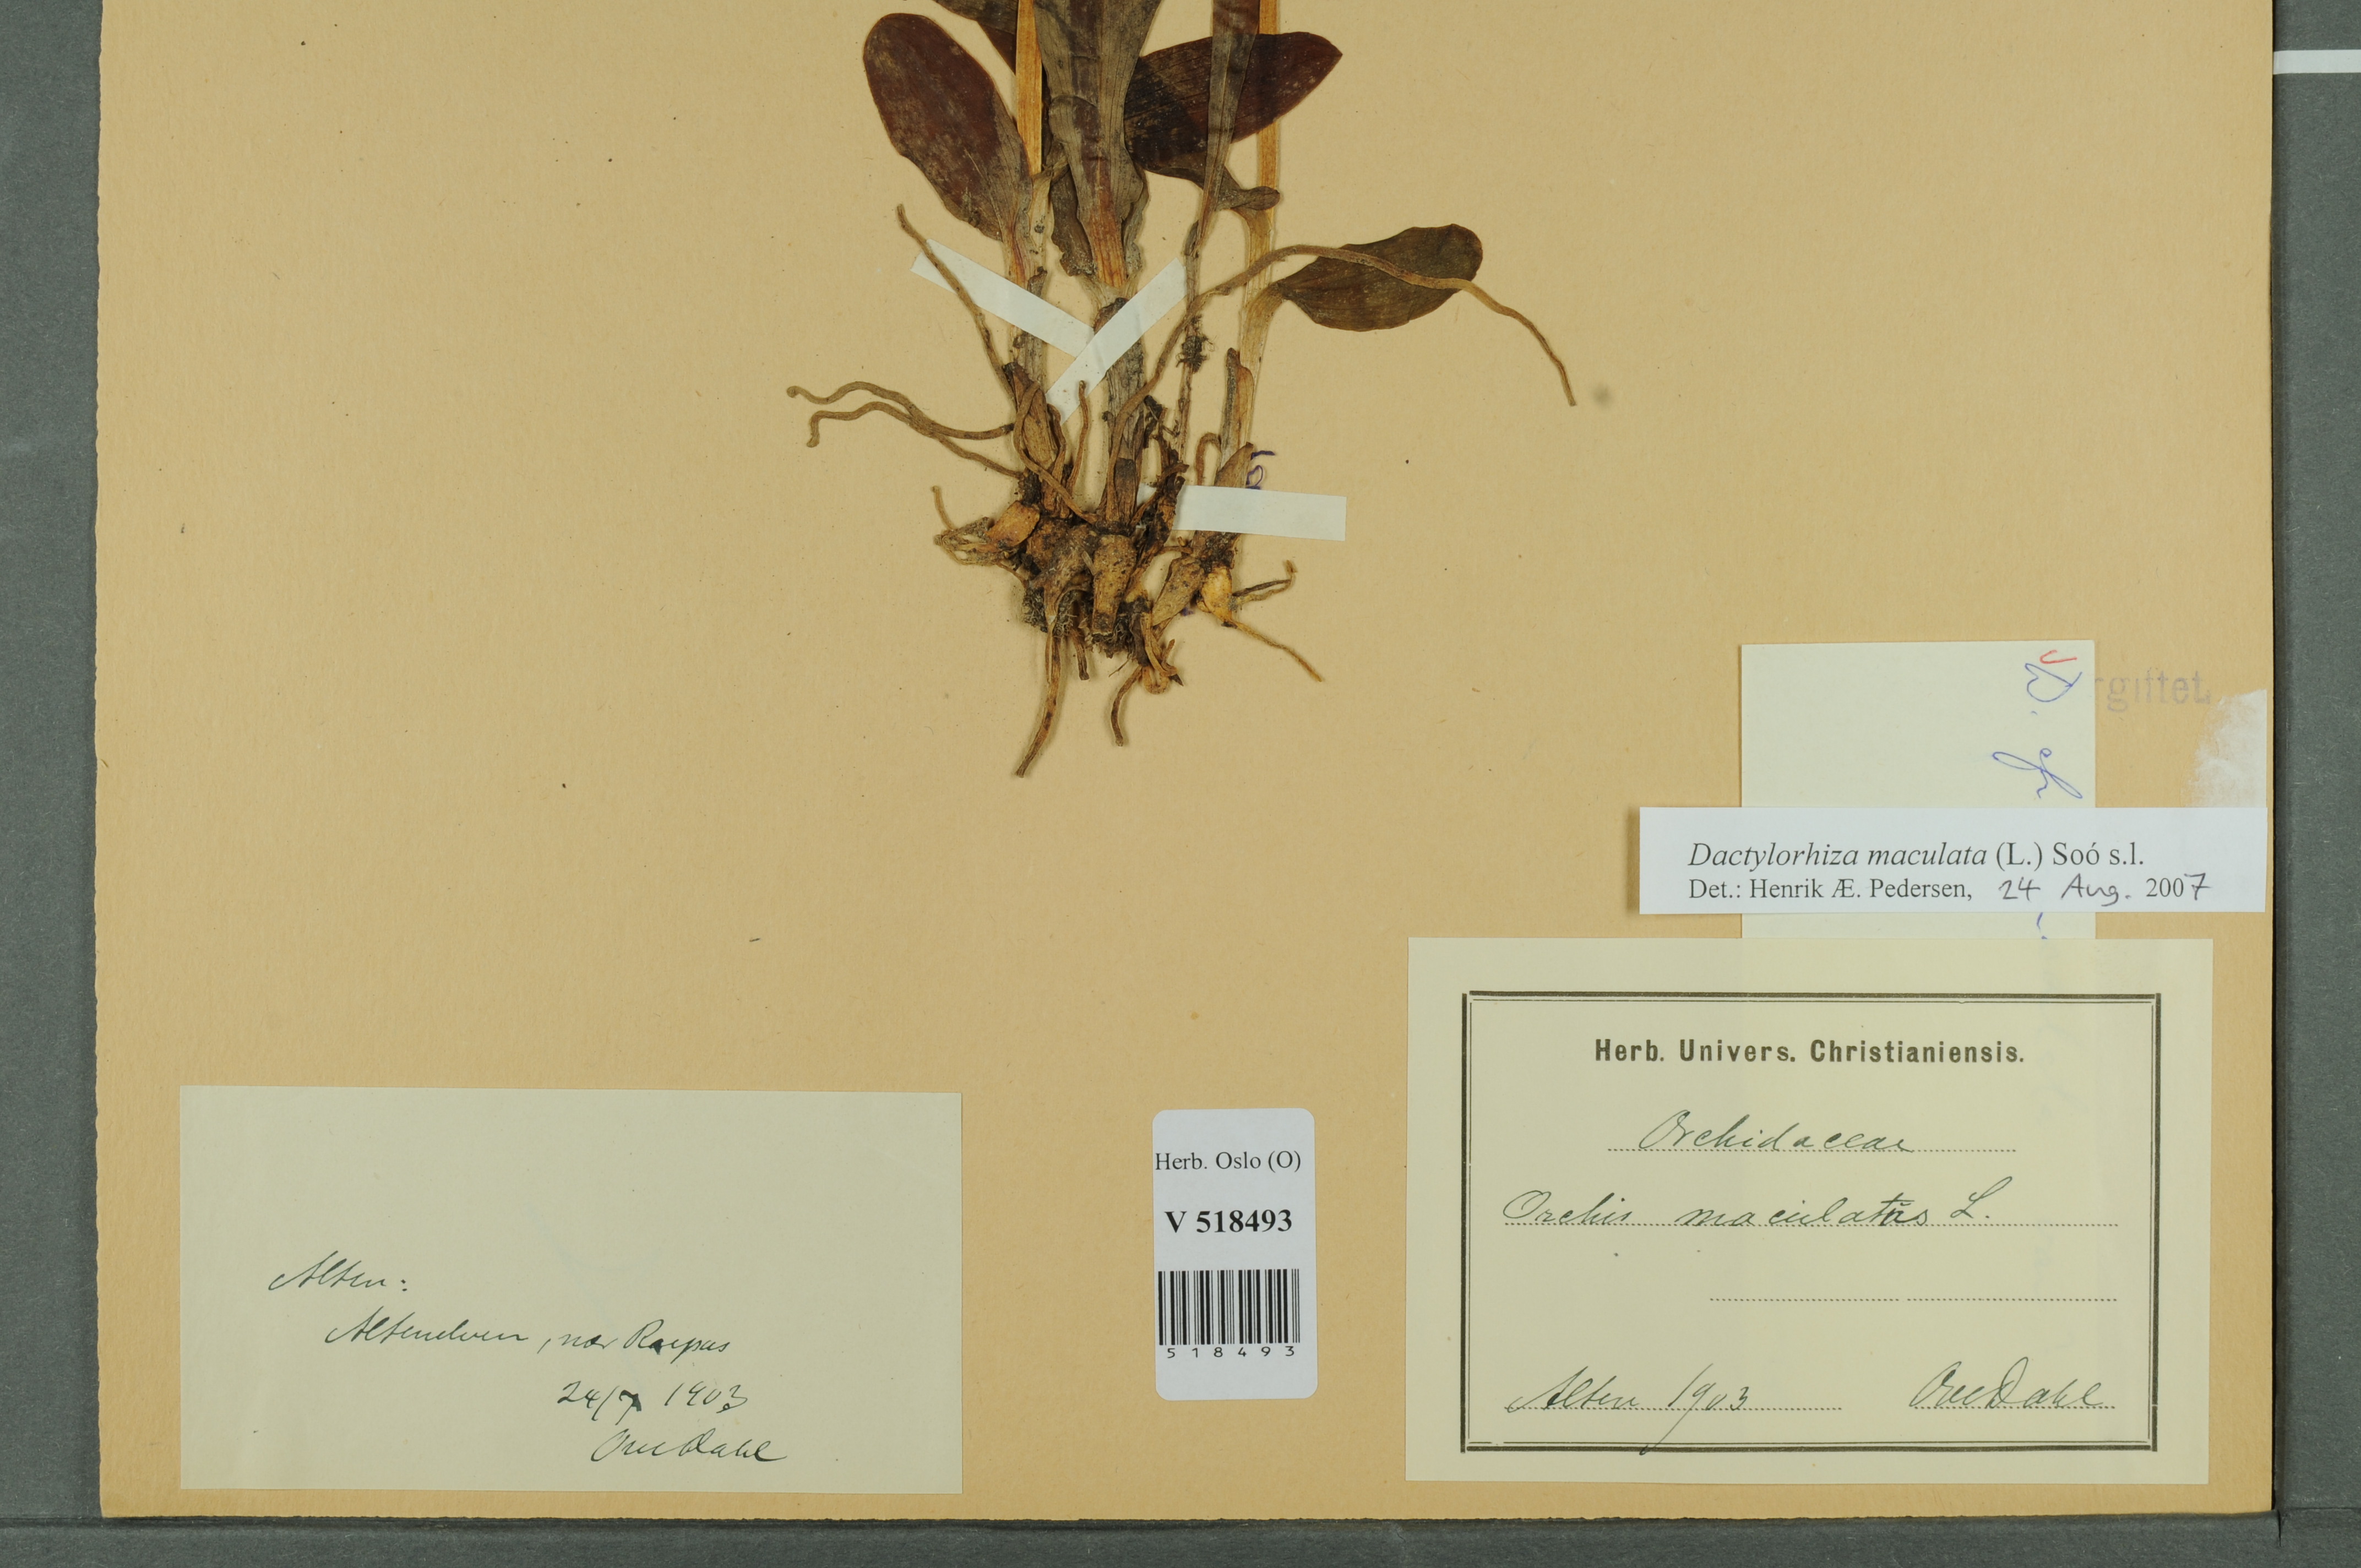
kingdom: Plantae
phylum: Tracheophyta
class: Liliopsida
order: Asparagales
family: Orchidaceae
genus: Dactylorhiza
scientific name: Dactylorhiza maculata
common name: Heath spotted-orchid
